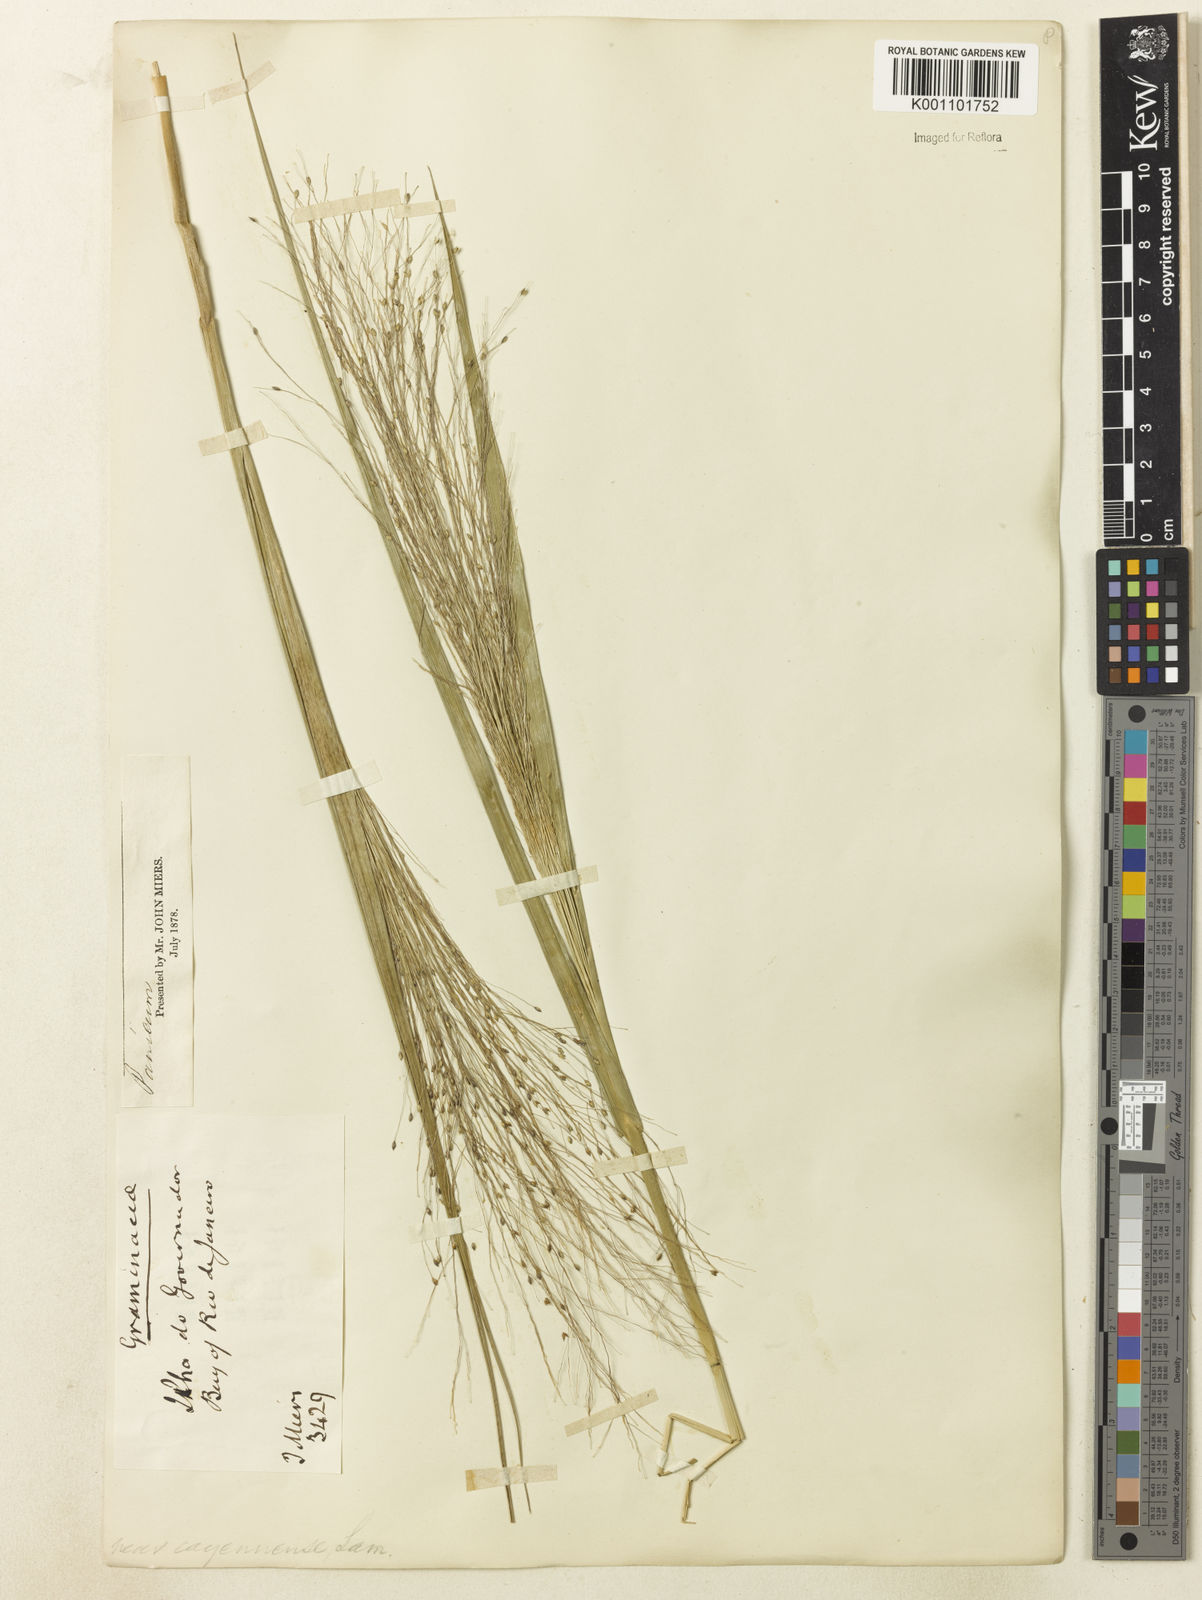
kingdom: Plantae
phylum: Tracheophyta
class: Liliopsida
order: Poales
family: Poaceae
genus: Panicum
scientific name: Panicum bergii
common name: Berg's panicgrass
